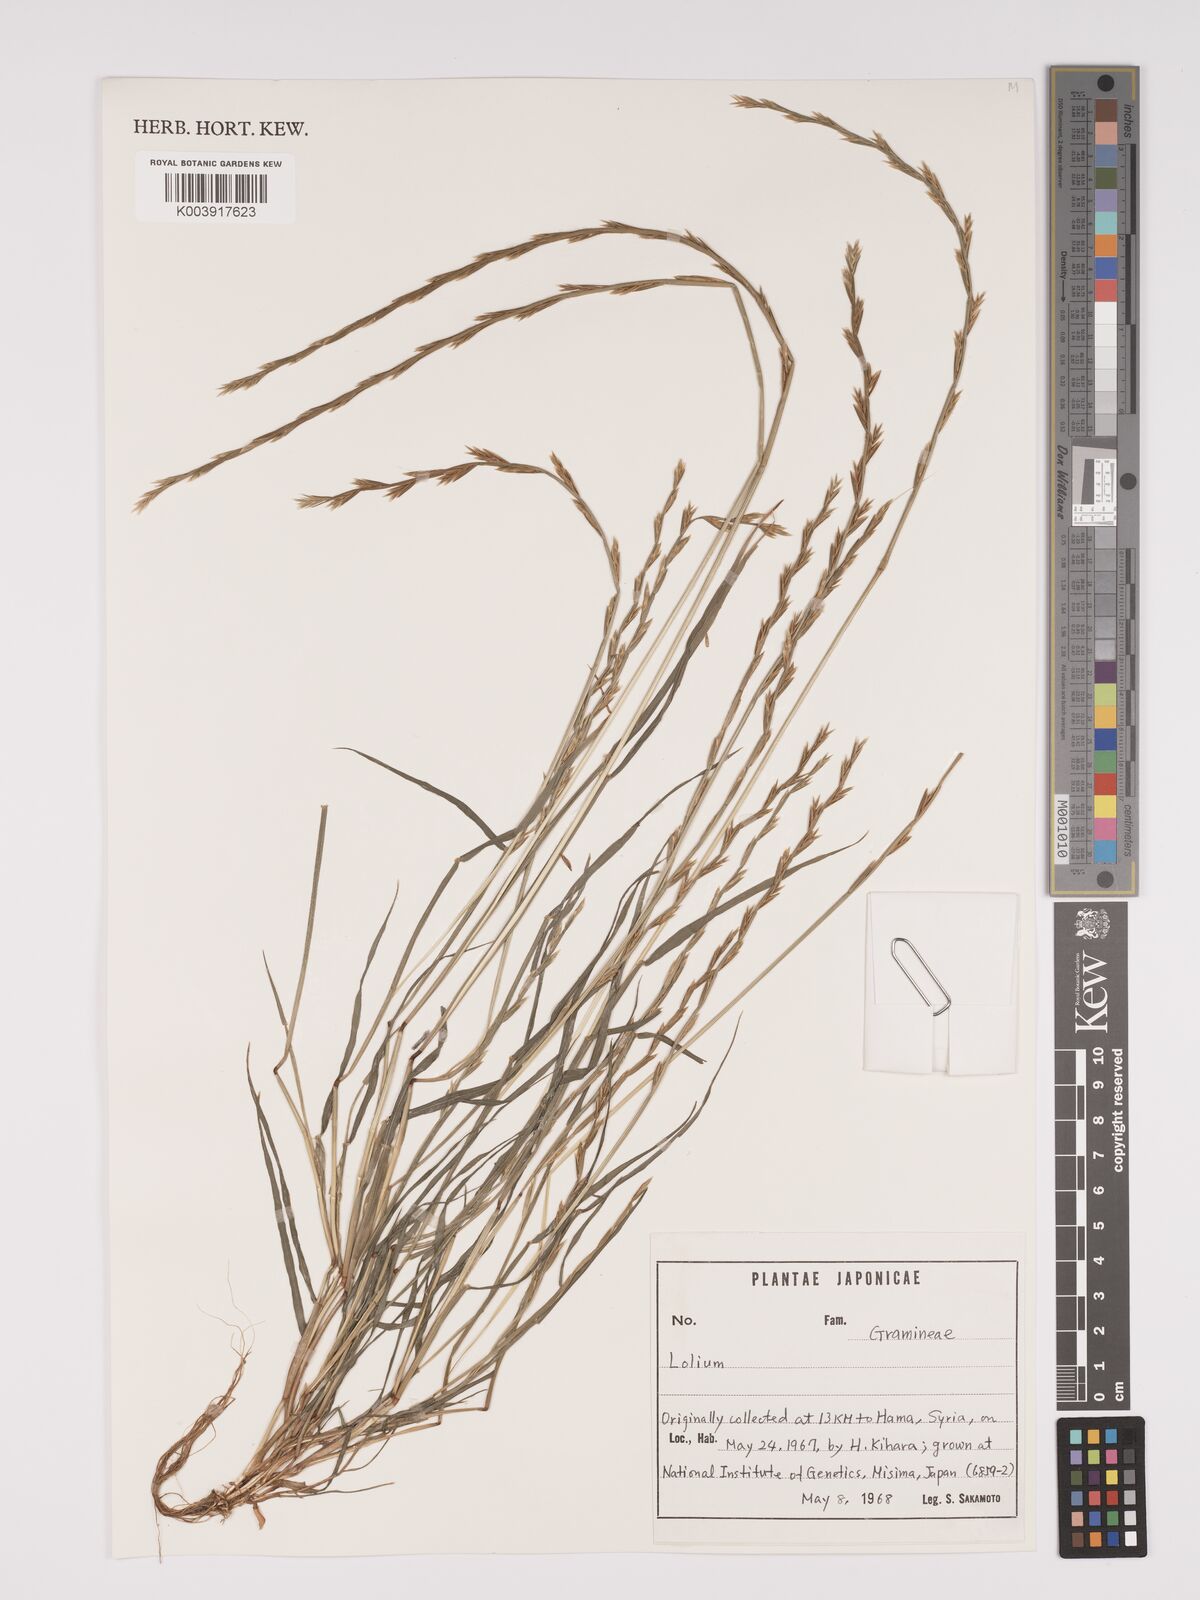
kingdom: Plantae
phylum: Tracheophyta
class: Liliopsida
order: Poales
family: Poaceae
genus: Lolium
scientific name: Lolium
